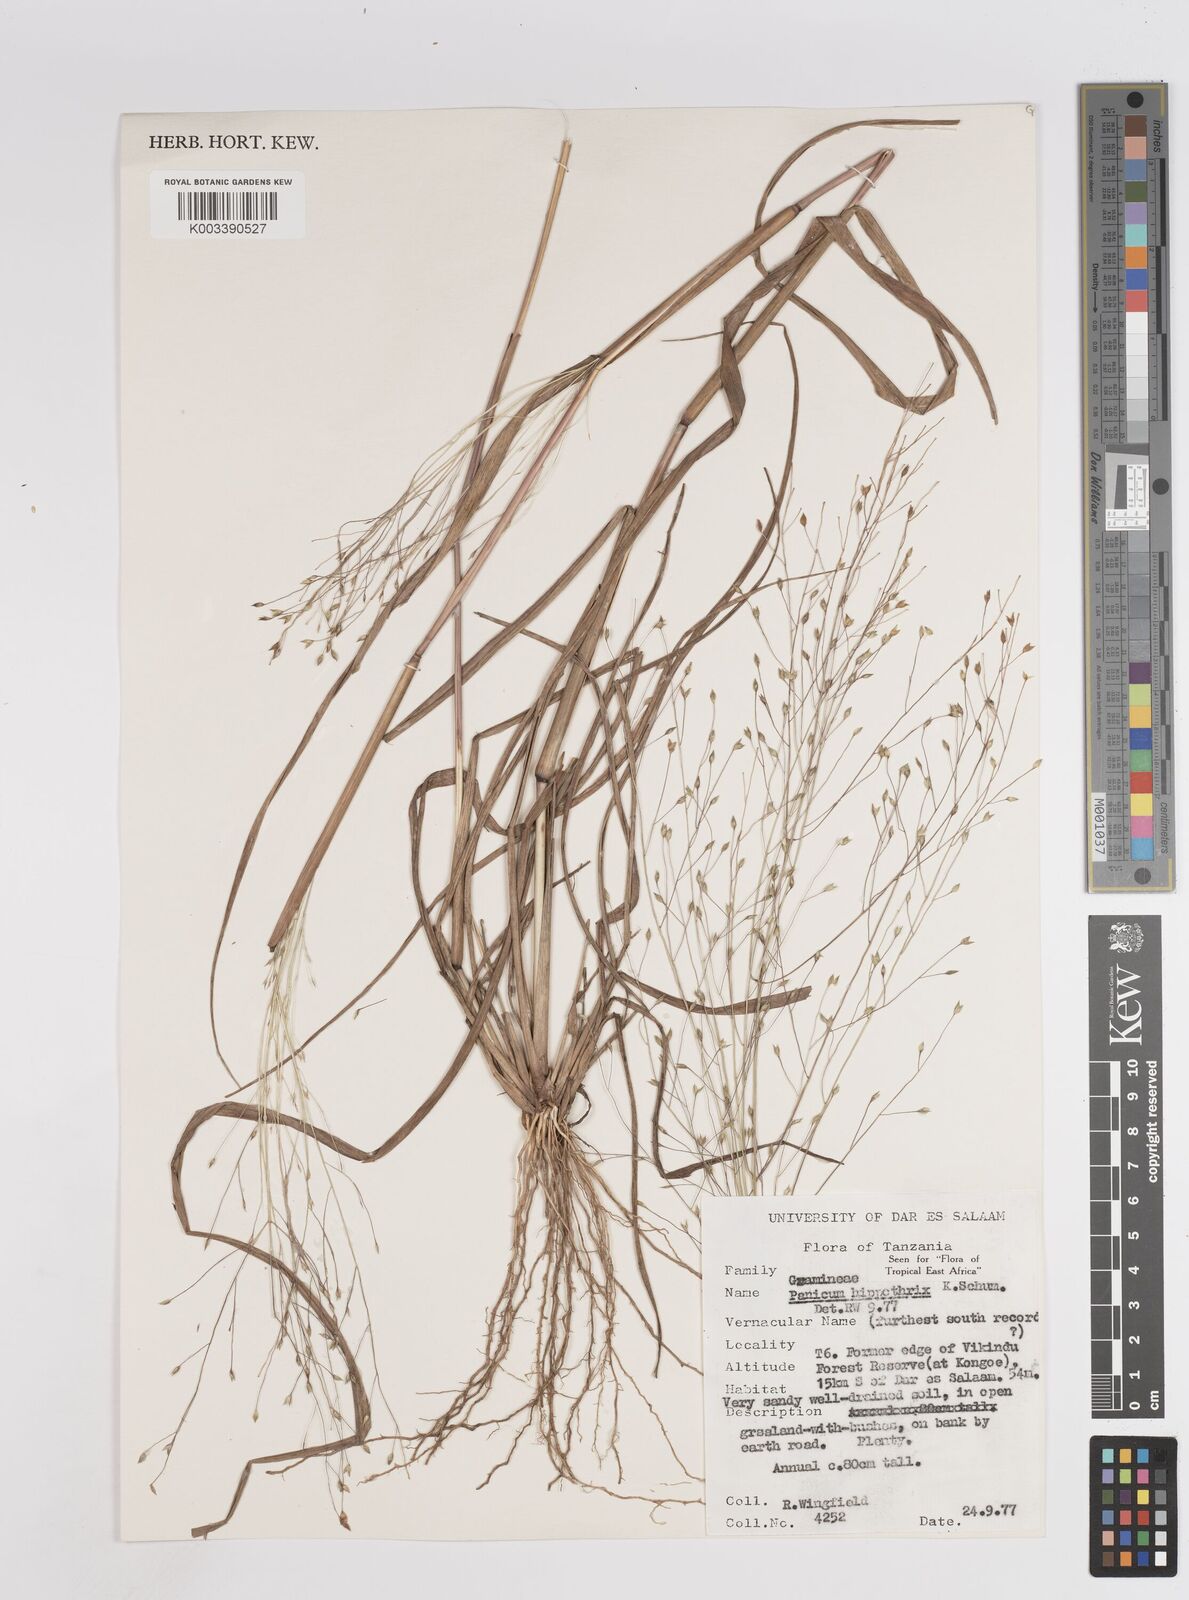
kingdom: Plantae
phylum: Tracheophyta
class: Liliopsida
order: Poales
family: Poaceae
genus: Panicum
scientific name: Panicum hippothrix
